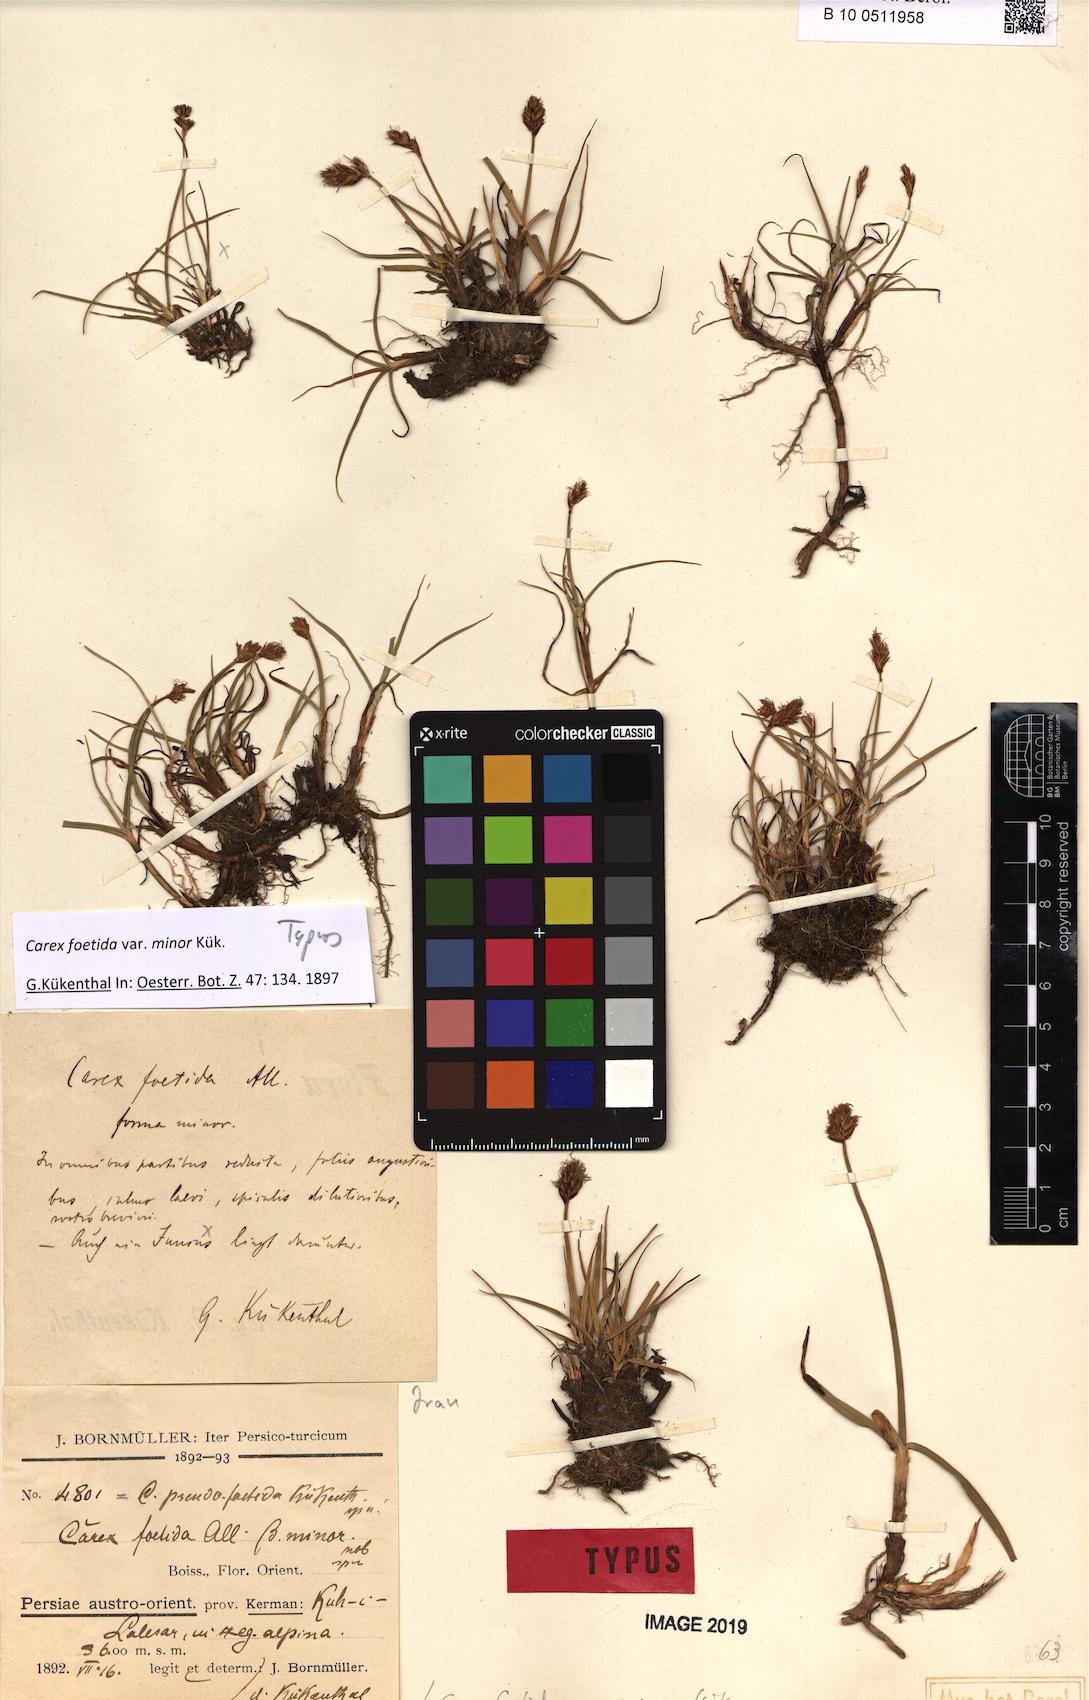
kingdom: Plantae
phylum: Tracheophyta
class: Liliopsida
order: Poales
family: Cyperaceae
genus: Carex
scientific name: Carex pseudofoetida
